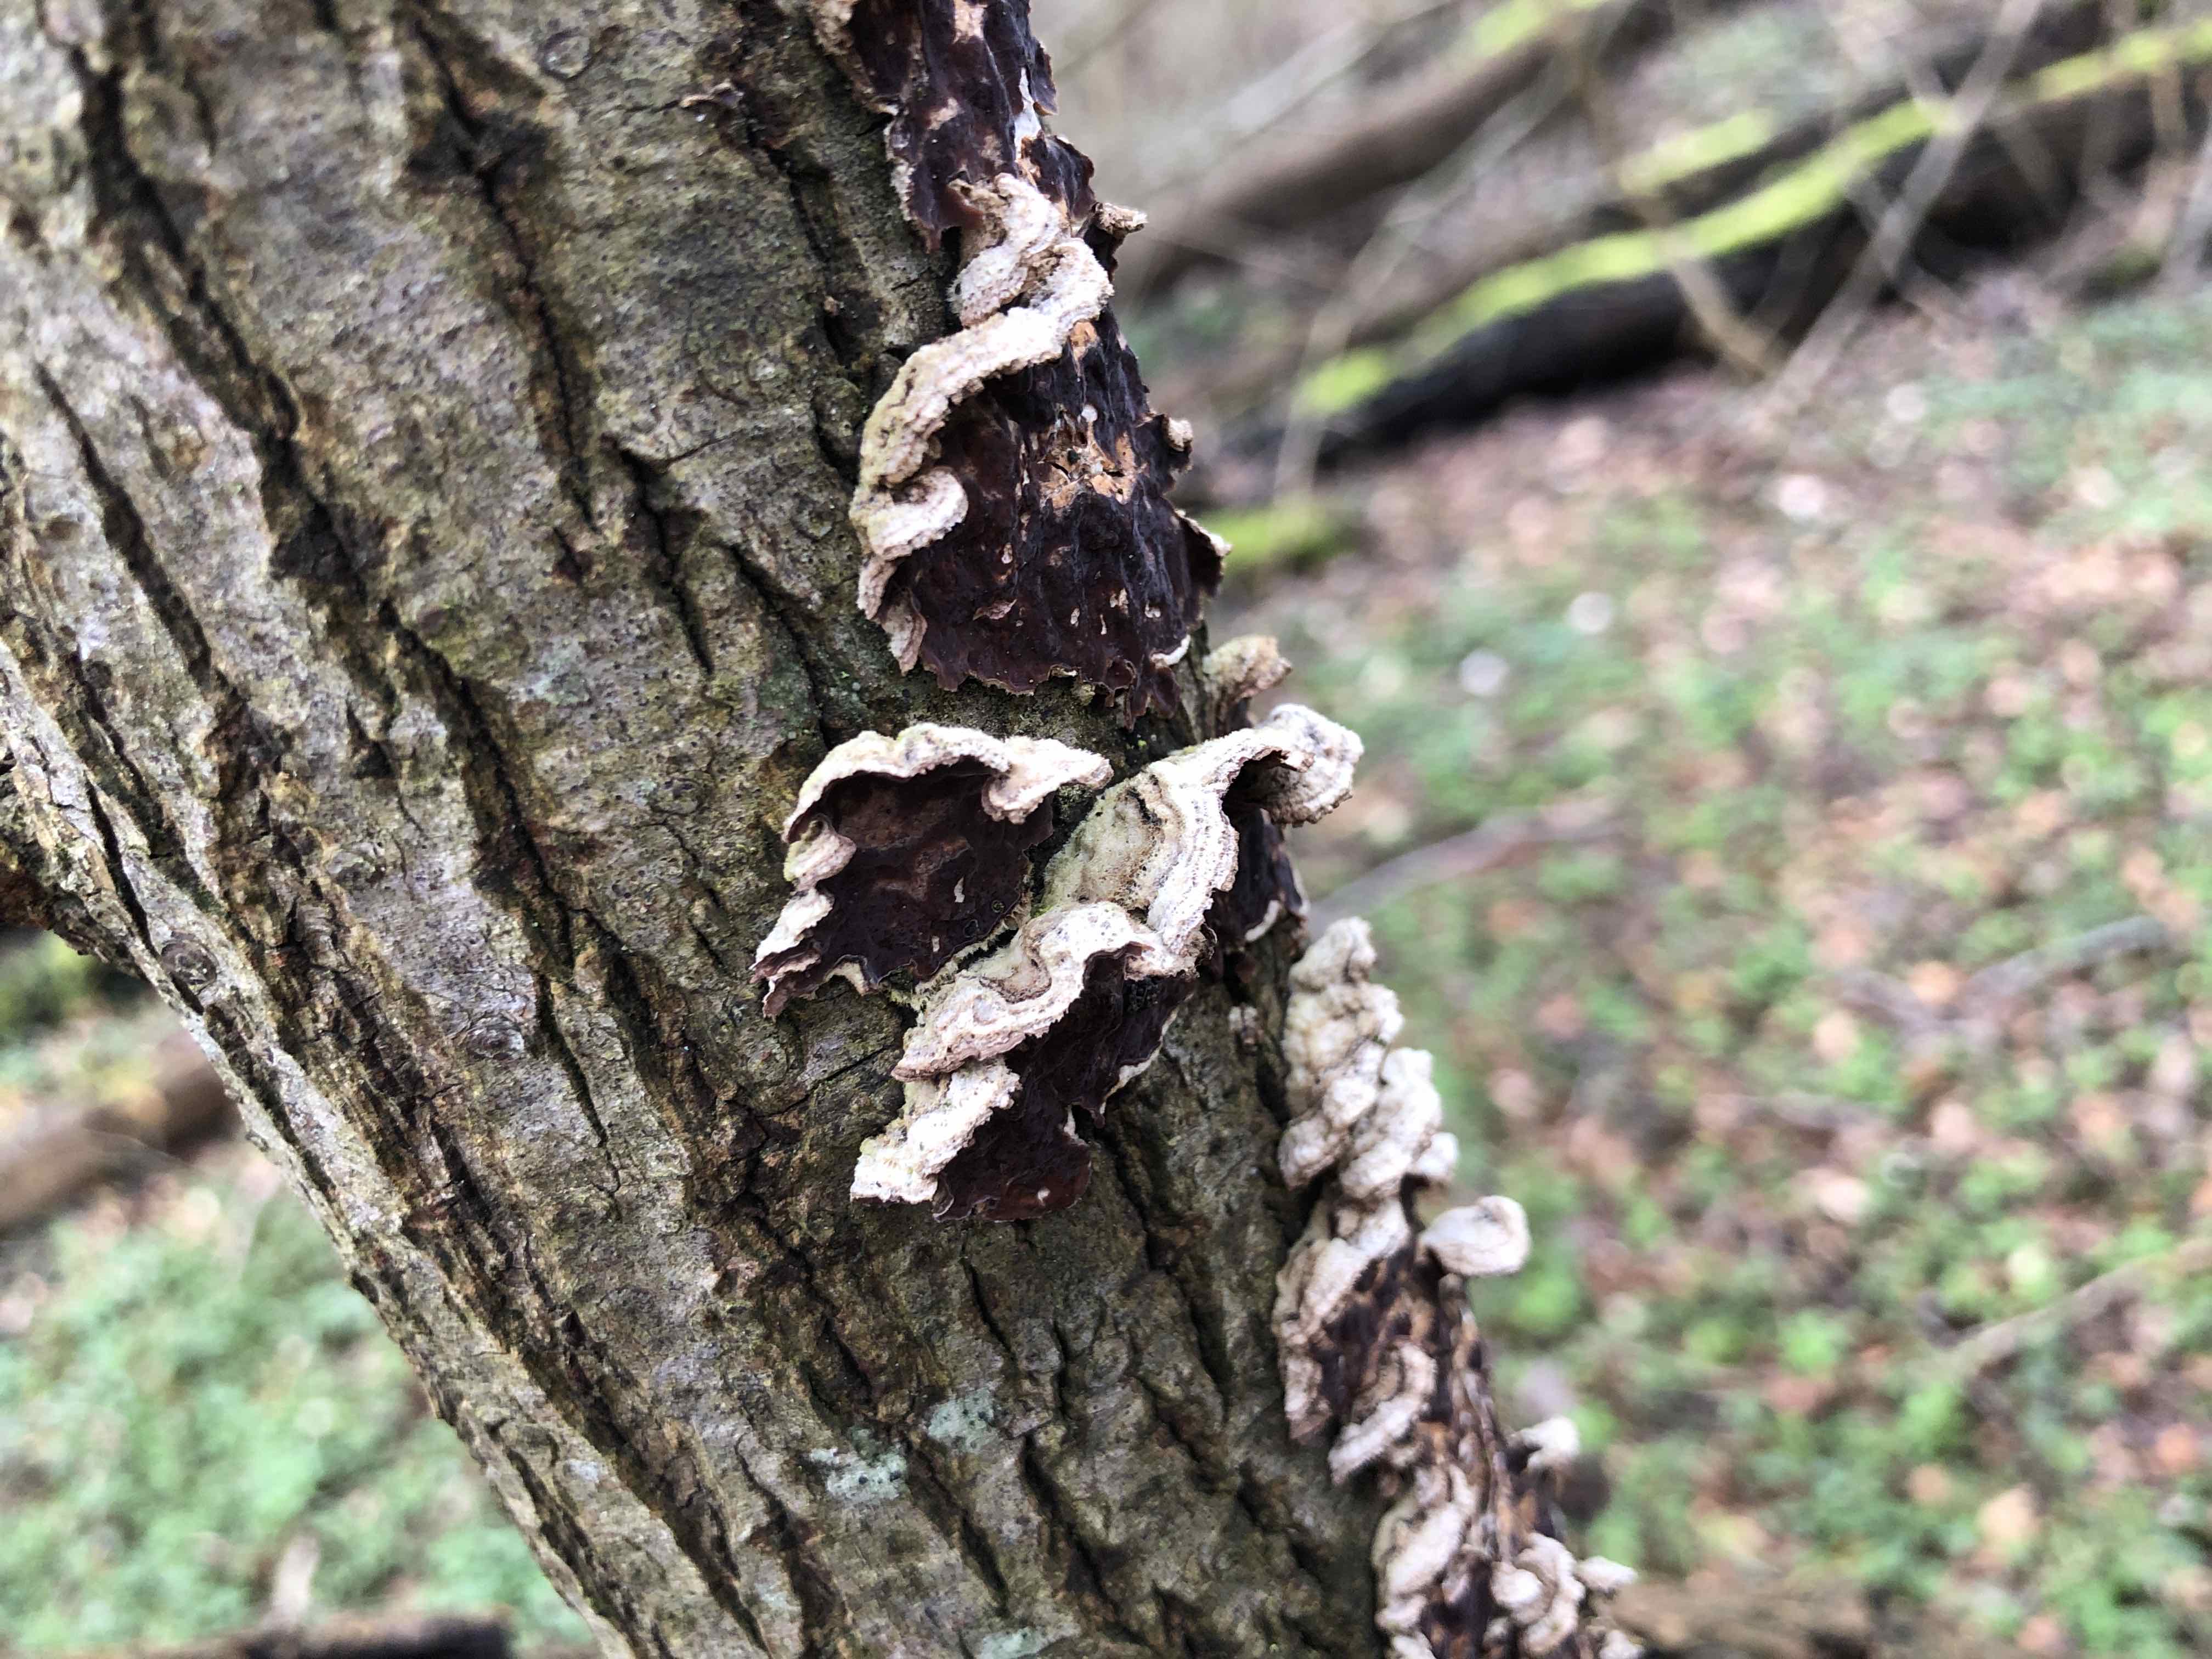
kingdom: Fungi
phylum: Basidiomycota
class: Agaricomycetes
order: Agaricales
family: Cyphellaceae
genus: Chondrostereum
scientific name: Chondrostereum purpureum
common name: purpurlædersvamp
